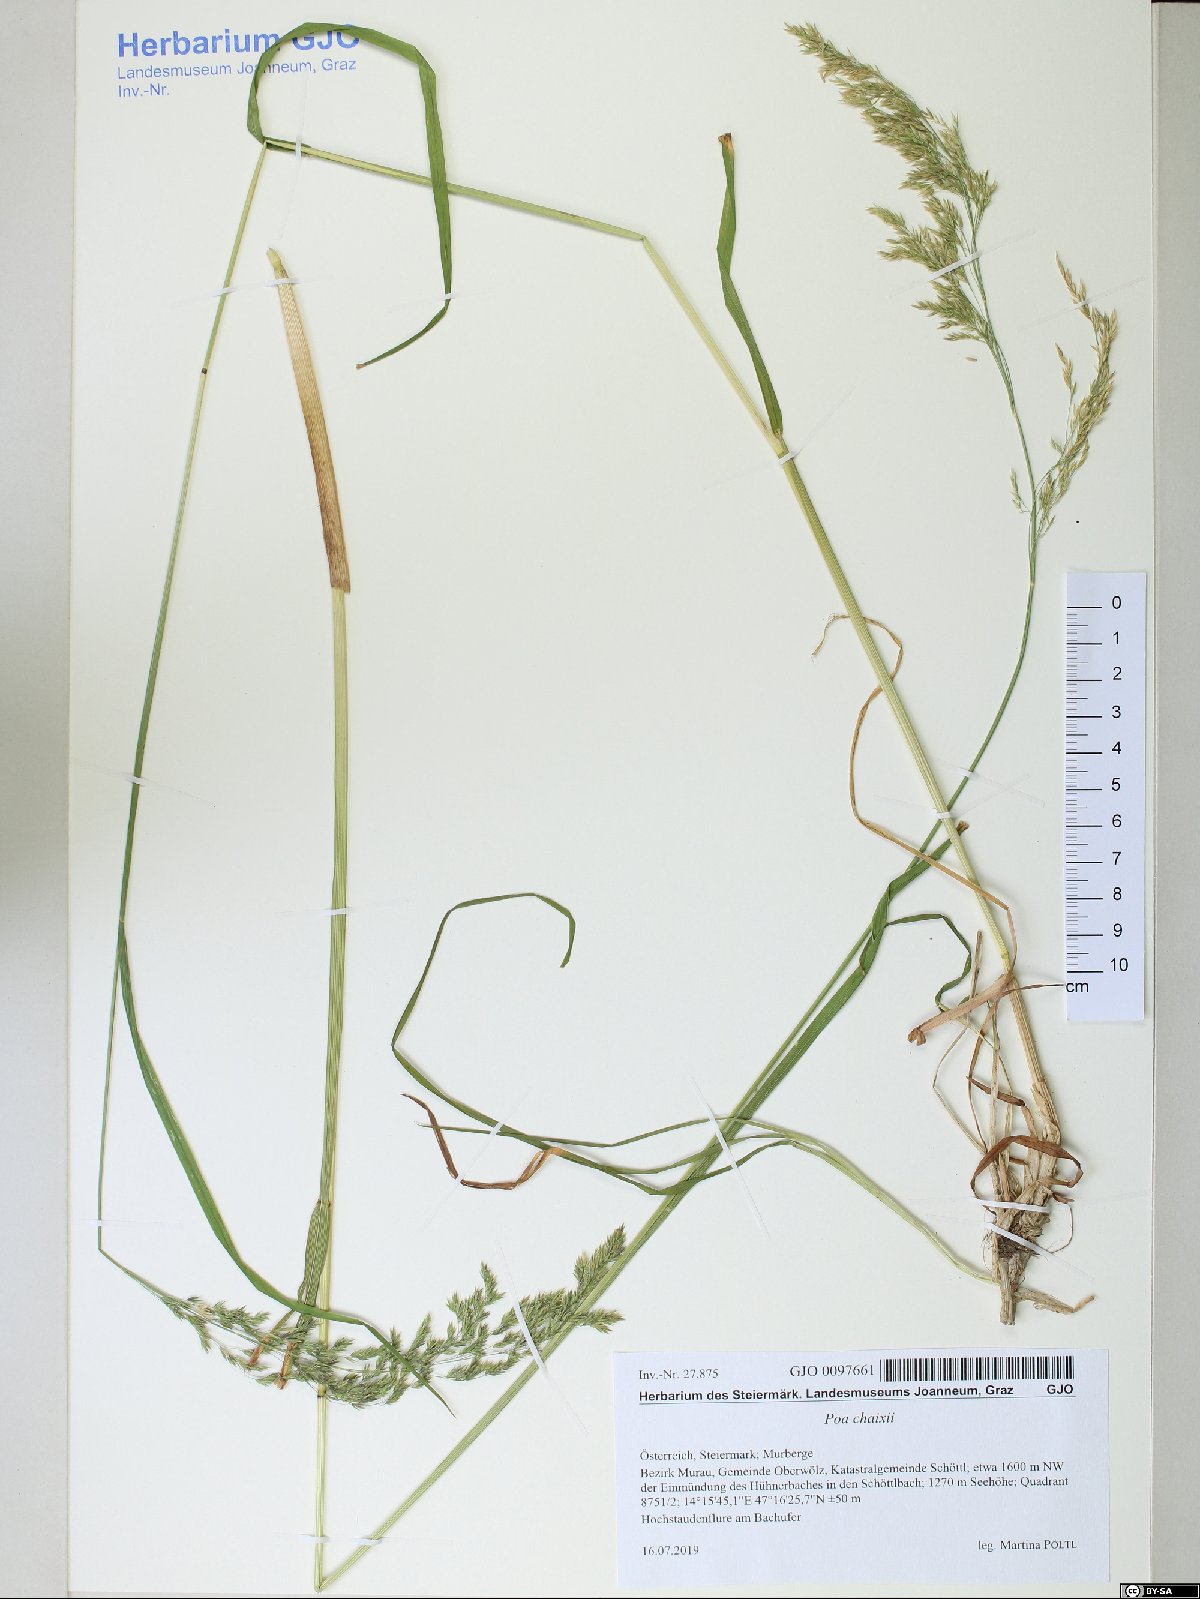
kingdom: Plantae
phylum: Tracheophyta
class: Liliopsida
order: Poales
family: Poaceae
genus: Poa
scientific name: Poa chaixii
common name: Broad-leaved meadow-grass
